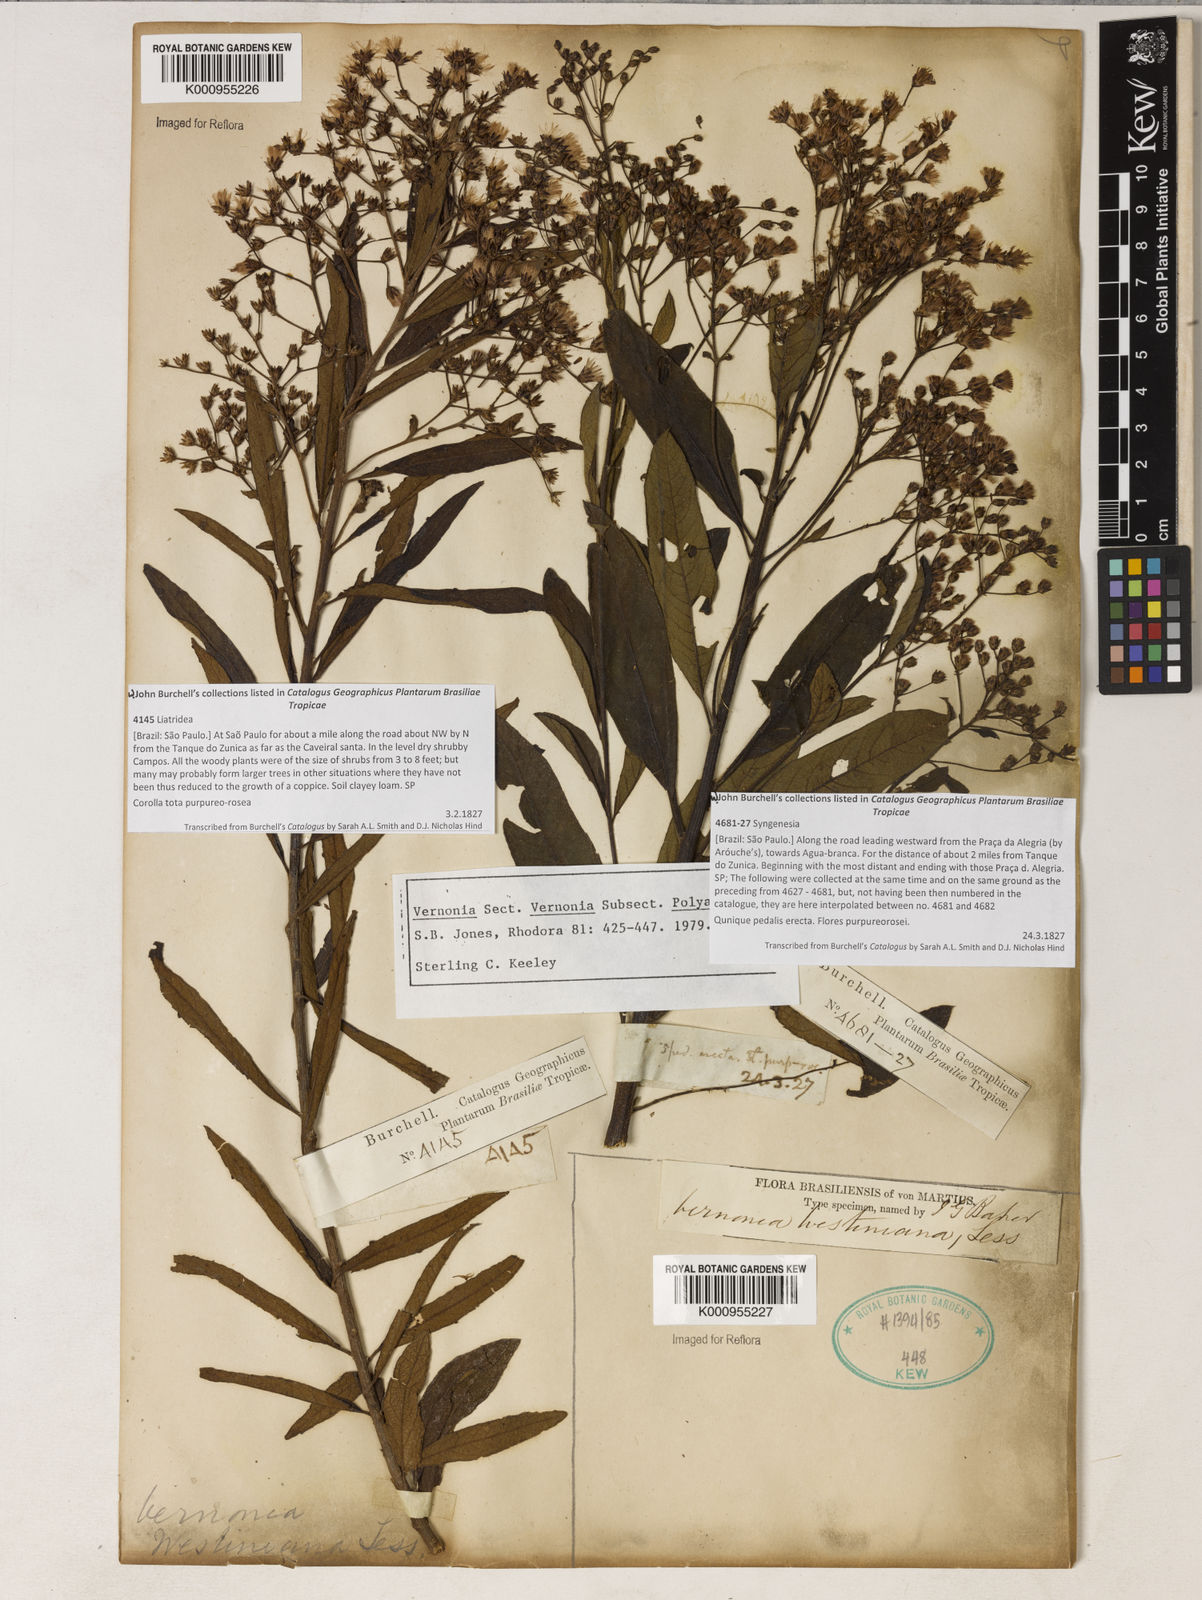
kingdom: Plantae
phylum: Tracheophyta
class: Magnoliopsida
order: Asterales
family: Asteraceae
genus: Vernonanthura
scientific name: Vernonanthura westiniana
